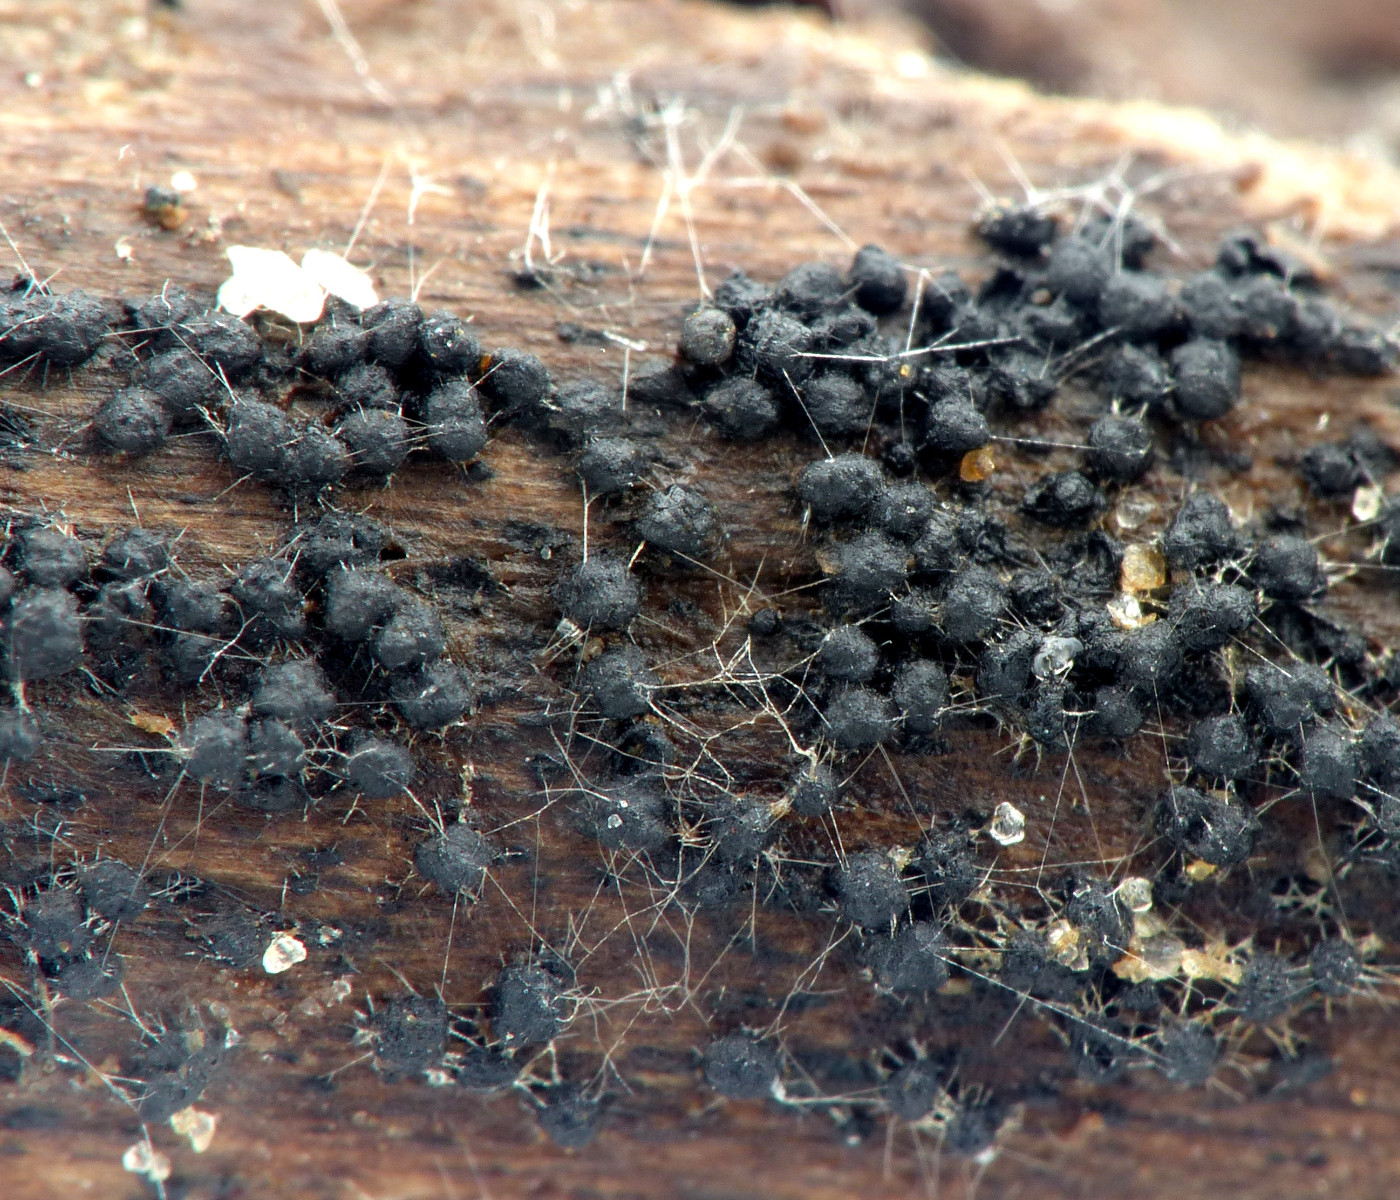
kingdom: Fungi
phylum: Ascomycota
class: Dothideomycetes
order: Pleosporales
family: Melanommataceae
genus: Melanomma
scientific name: Melanomma pulvis-pyrius
